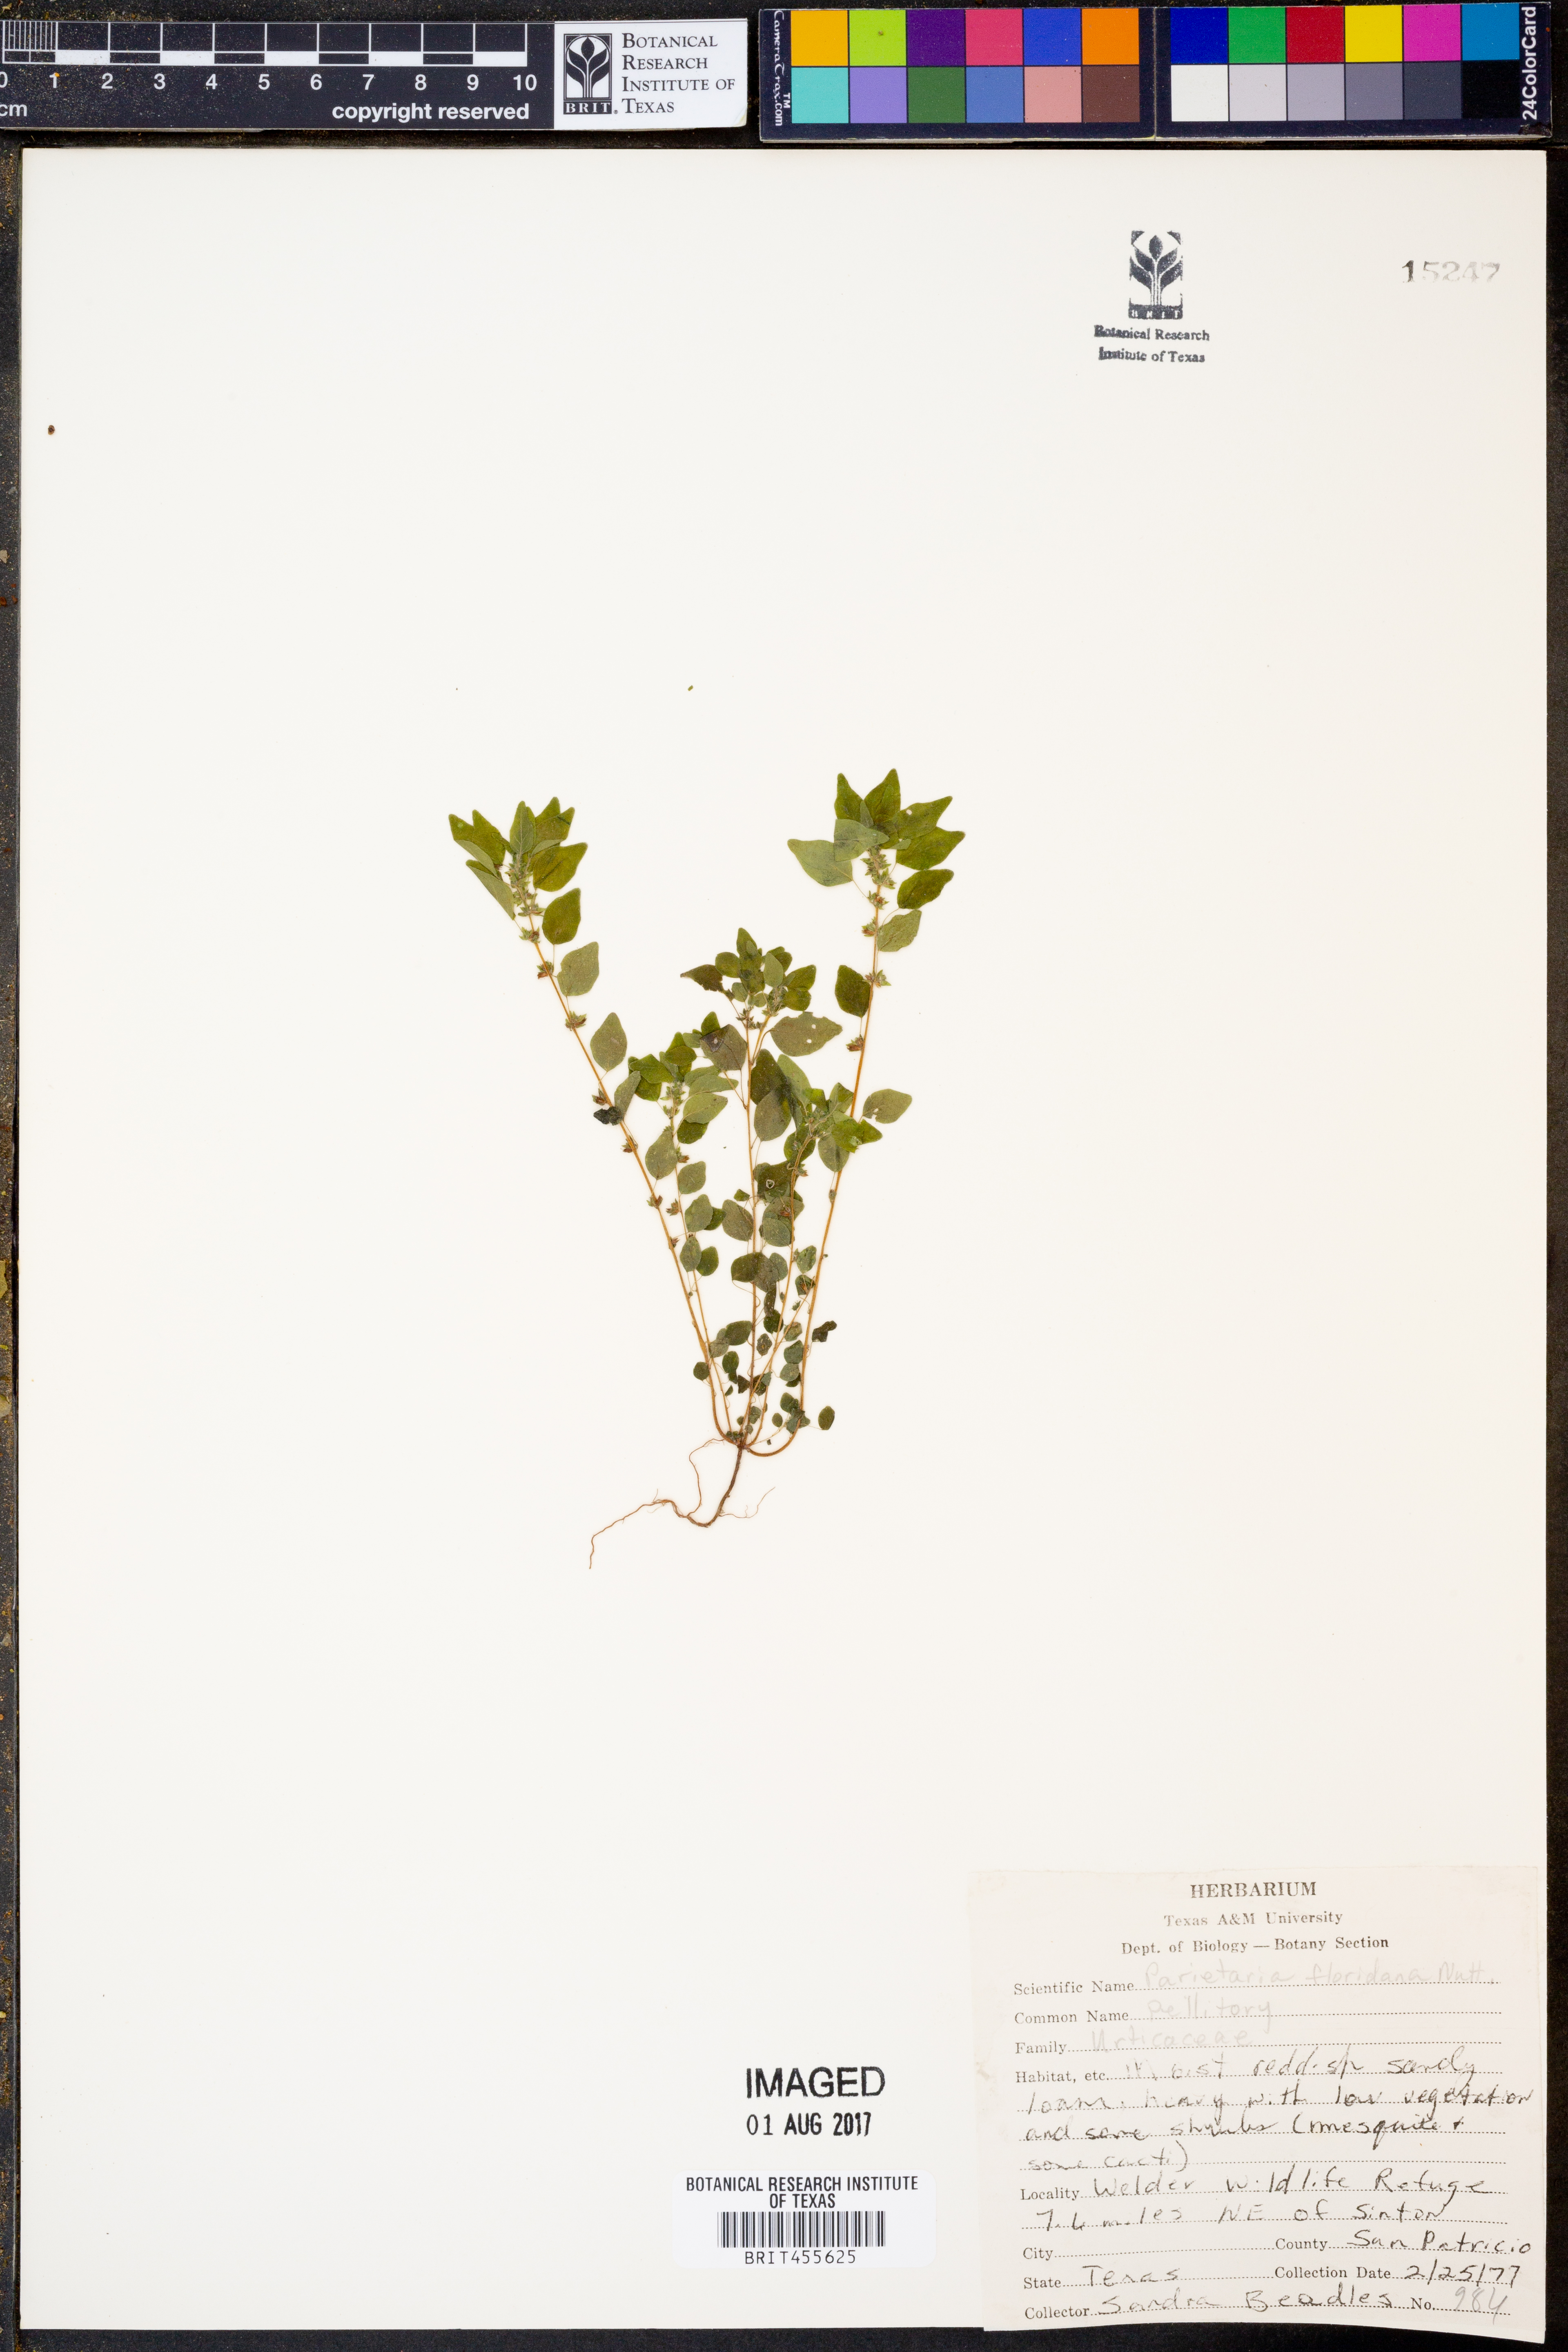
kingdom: Plantae
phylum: Tracheophyta
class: Magnoliopsida
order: Rosales
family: Urticaceae
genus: Parietaria
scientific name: Parietaria floridana
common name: Florida pellitory
